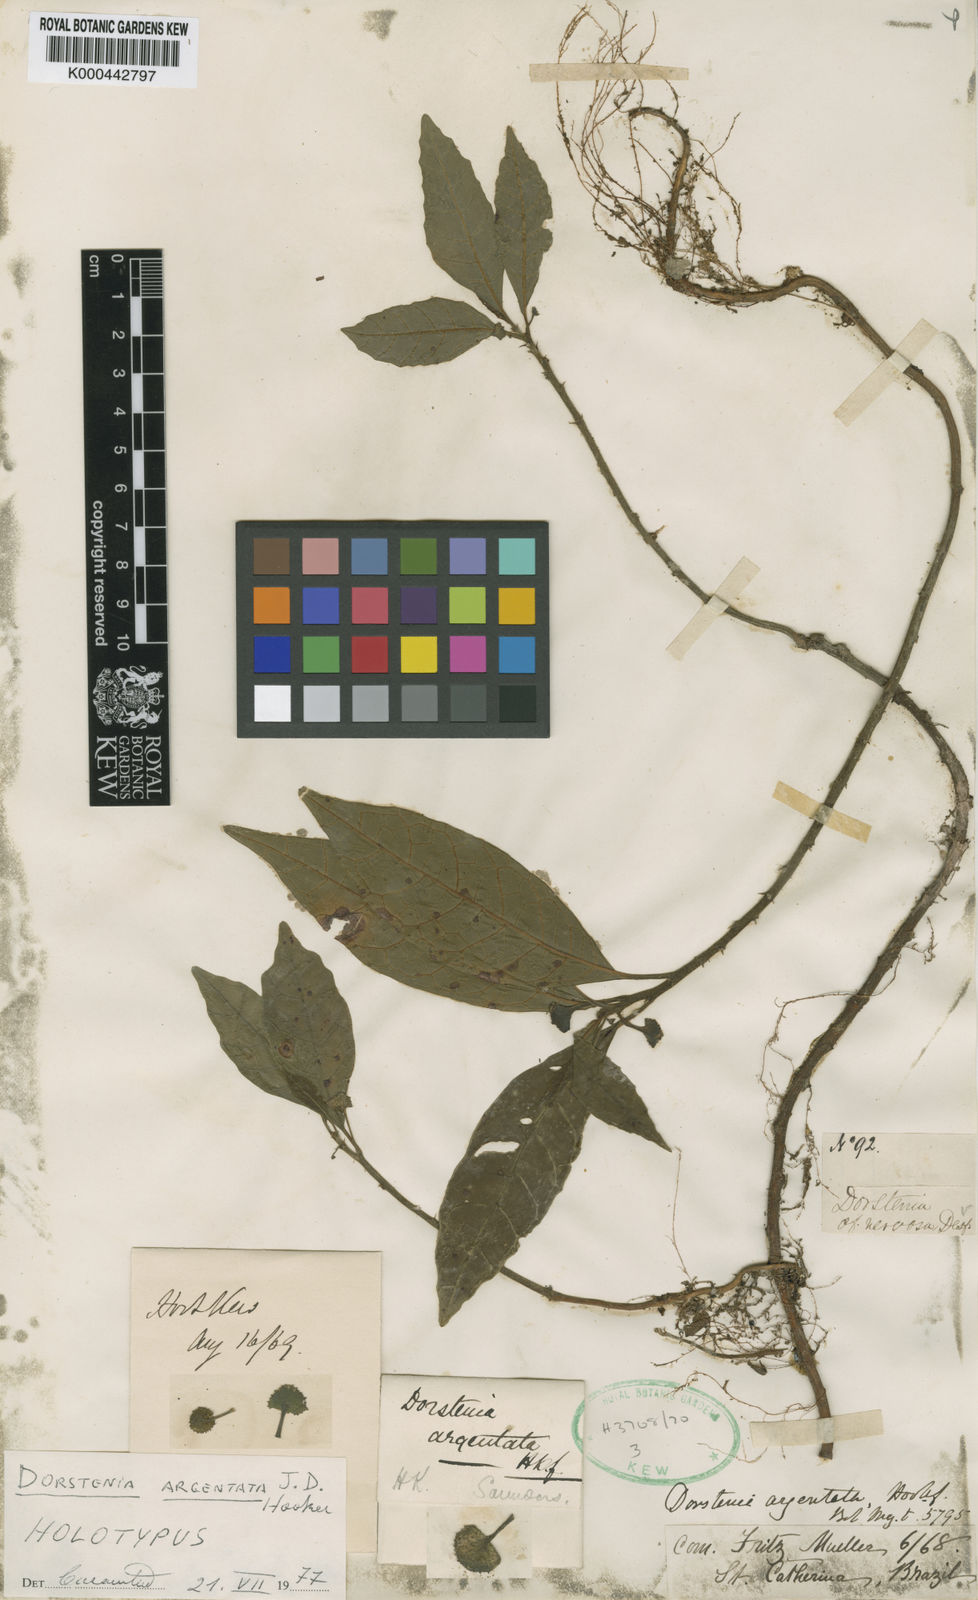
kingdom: Plantae
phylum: Tracheophyta
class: Magnoliopsida
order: Rosales
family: Moraceae
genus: Dorstenia
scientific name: Dorstenia turnerifolia
